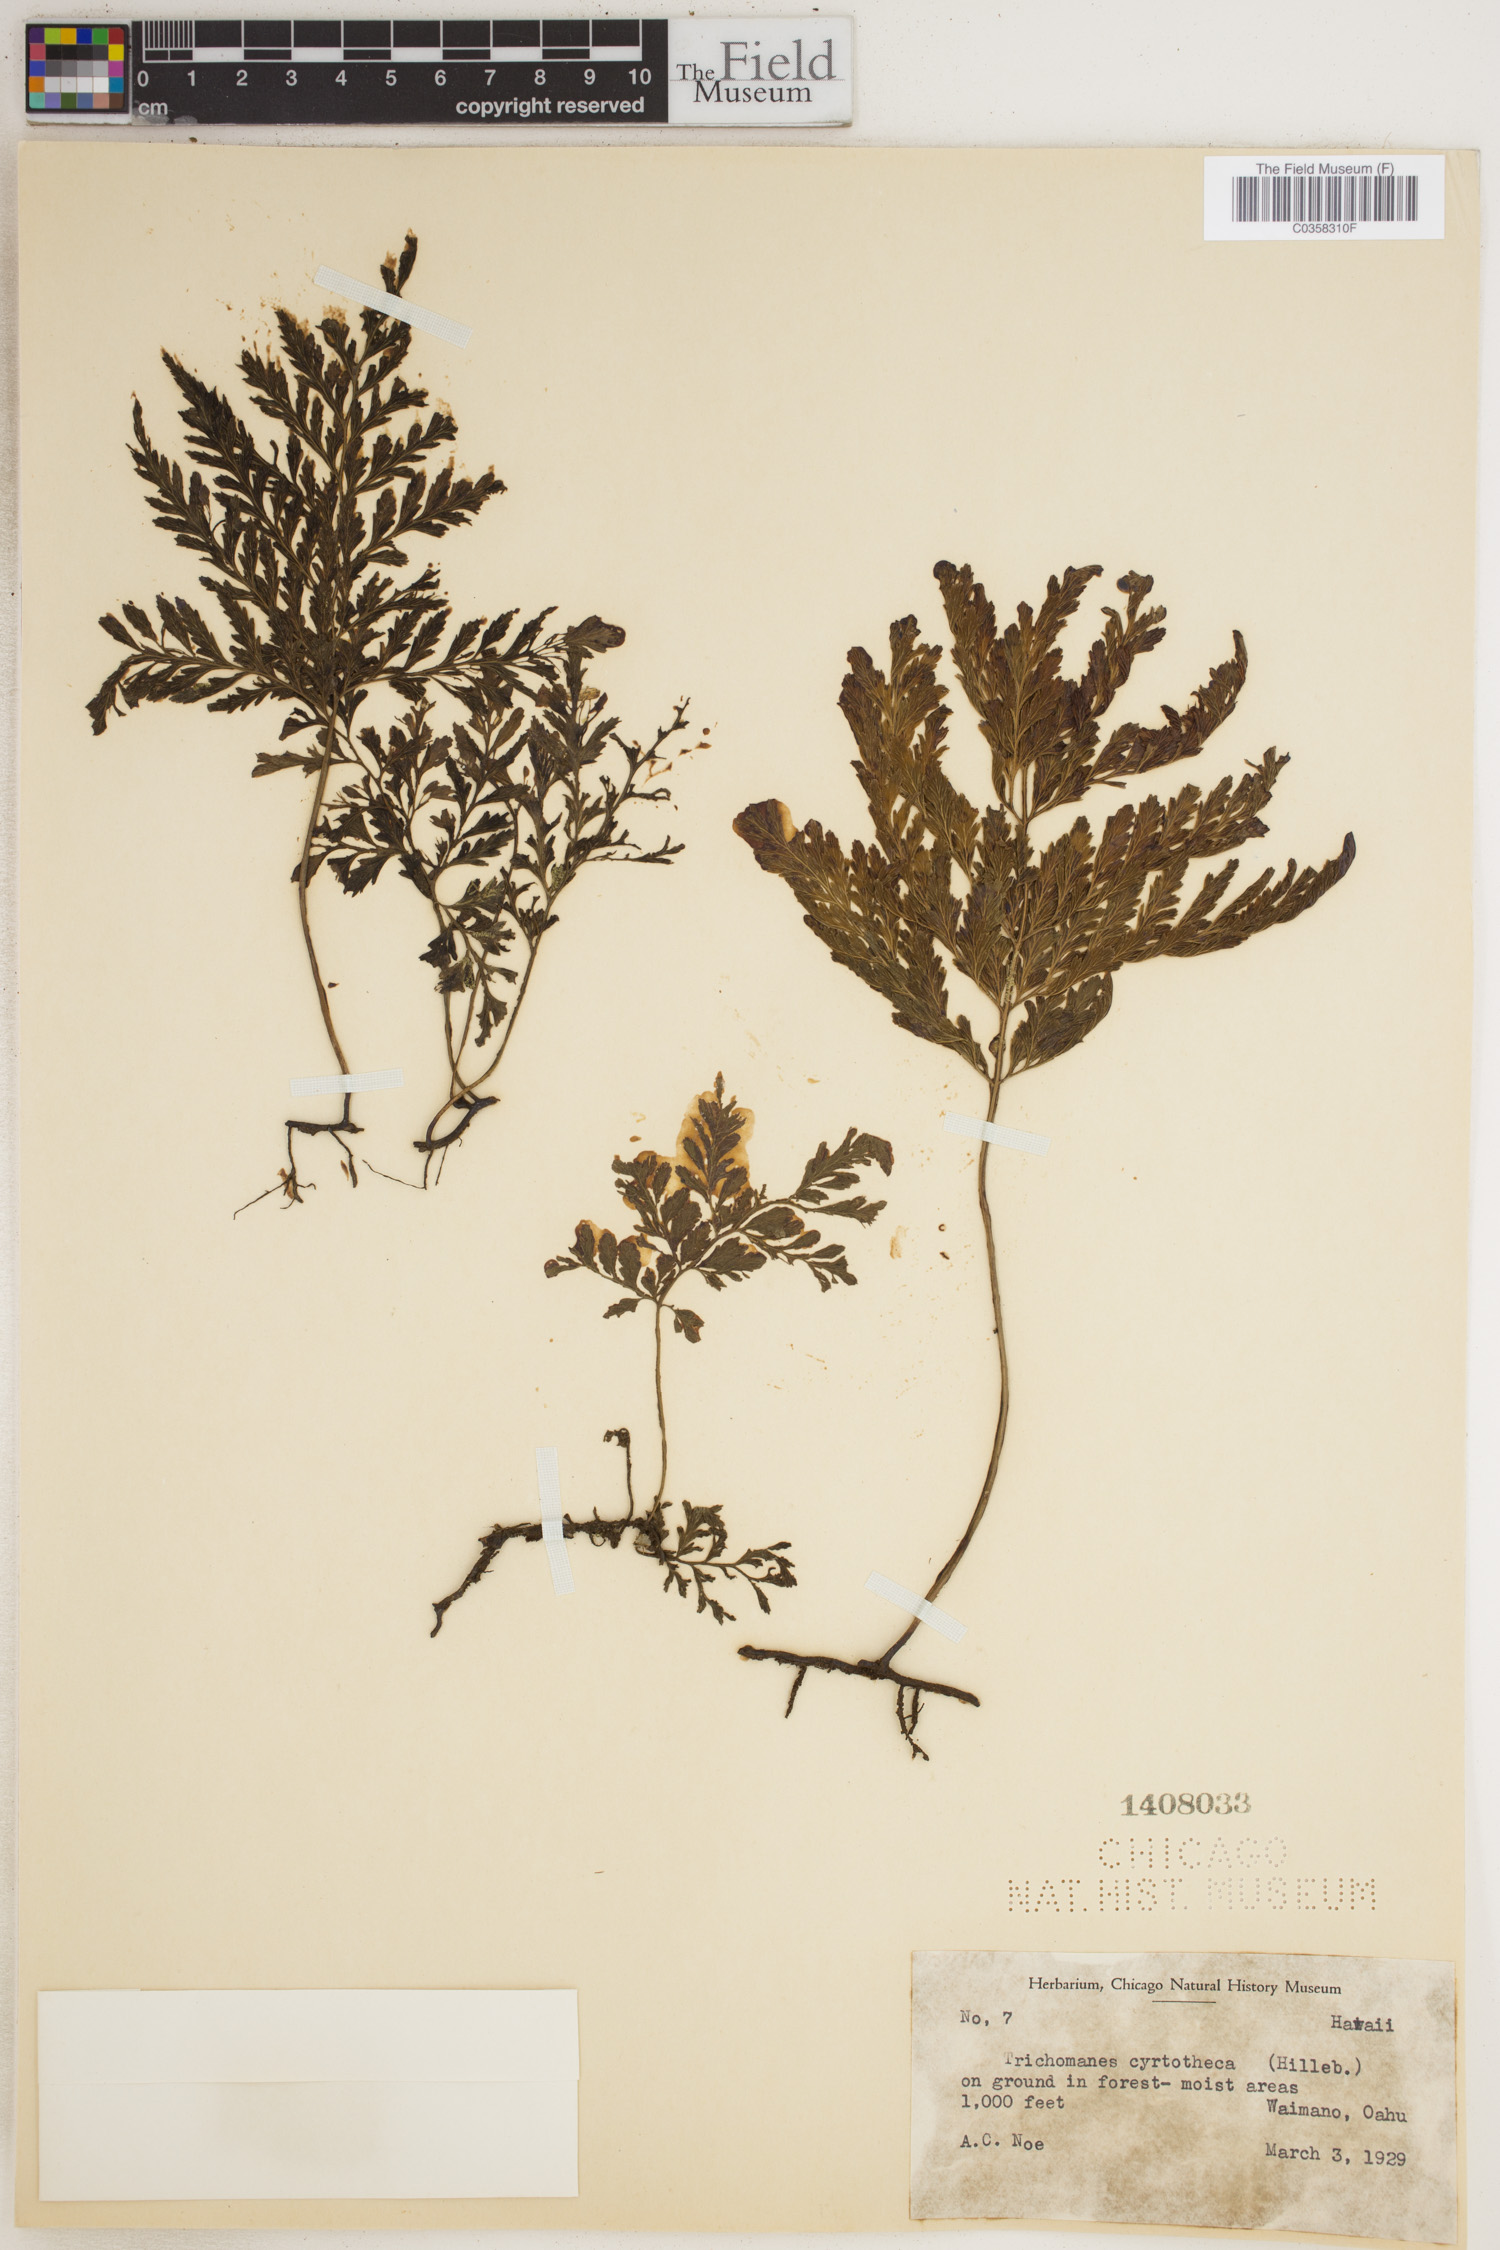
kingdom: Plantae
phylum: Tracheophyta
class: Polypodiopsida
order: Hymenophyllales
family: Hymenophyllaceae
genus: Vandenboschia
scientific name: Vandenboschia cyrtotheca
